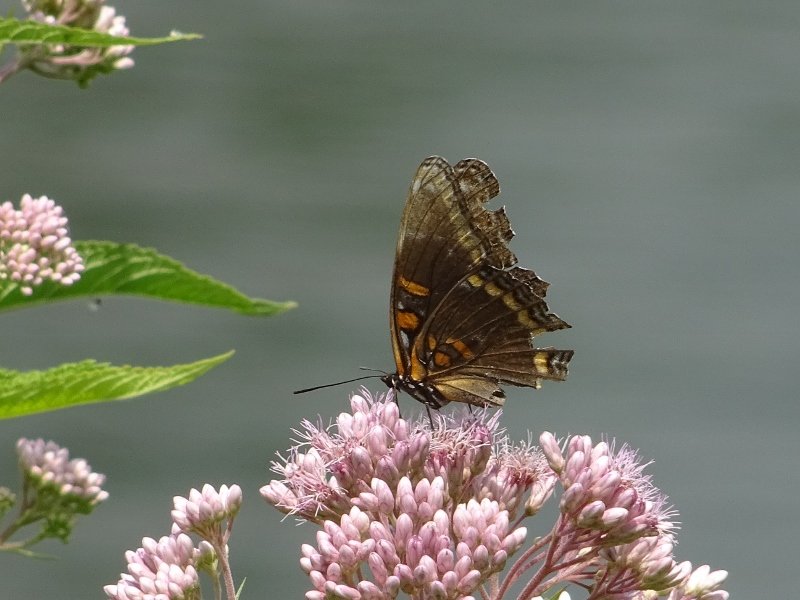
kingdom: Animalia
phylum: Arthropoda
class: Insecta
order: Lepidoptera
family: Nymphalidae
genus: Limenitis
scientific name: Limenitis astyanax
